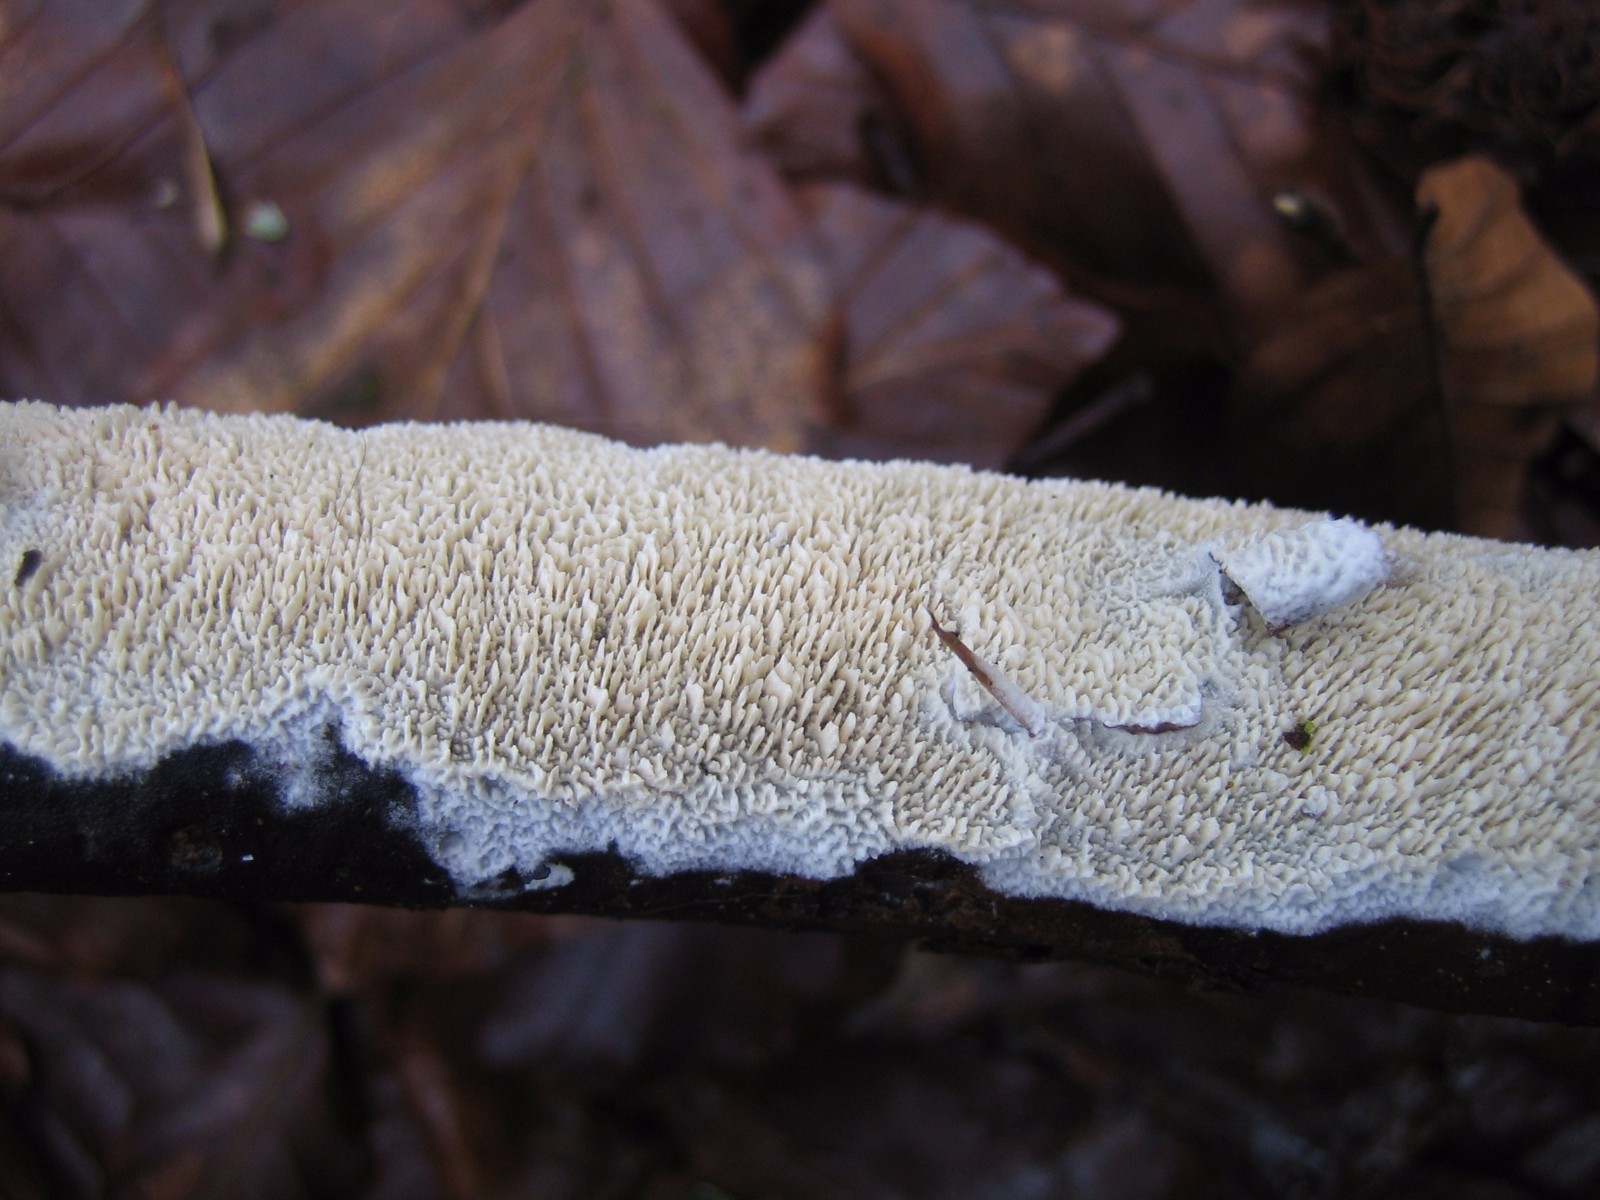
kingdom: Fungi
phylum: Basidiomycota
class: Agaricomycetes
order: Hymenochaetales
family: Schizoporaceae
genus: Schizopora
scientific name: Schizopora paradoxa
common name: hvid tandsvamp
